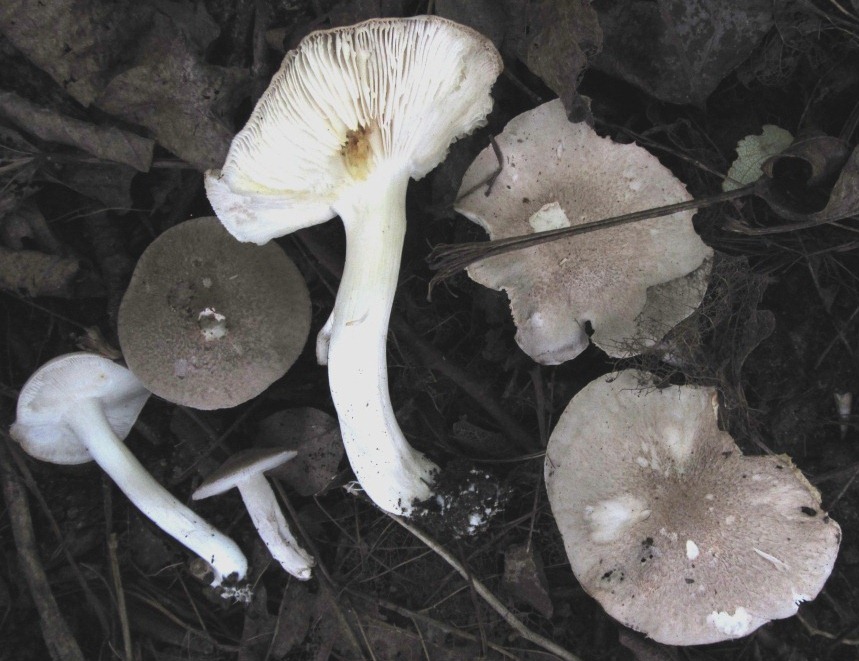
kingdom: Fungi
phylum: Basidiomycota
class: Agaricomycetes
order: Agaricales
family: Tricholomataceae
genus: Tricholoma
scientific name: Tricholoma scalpturatum
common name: gulplettet ridderhat
